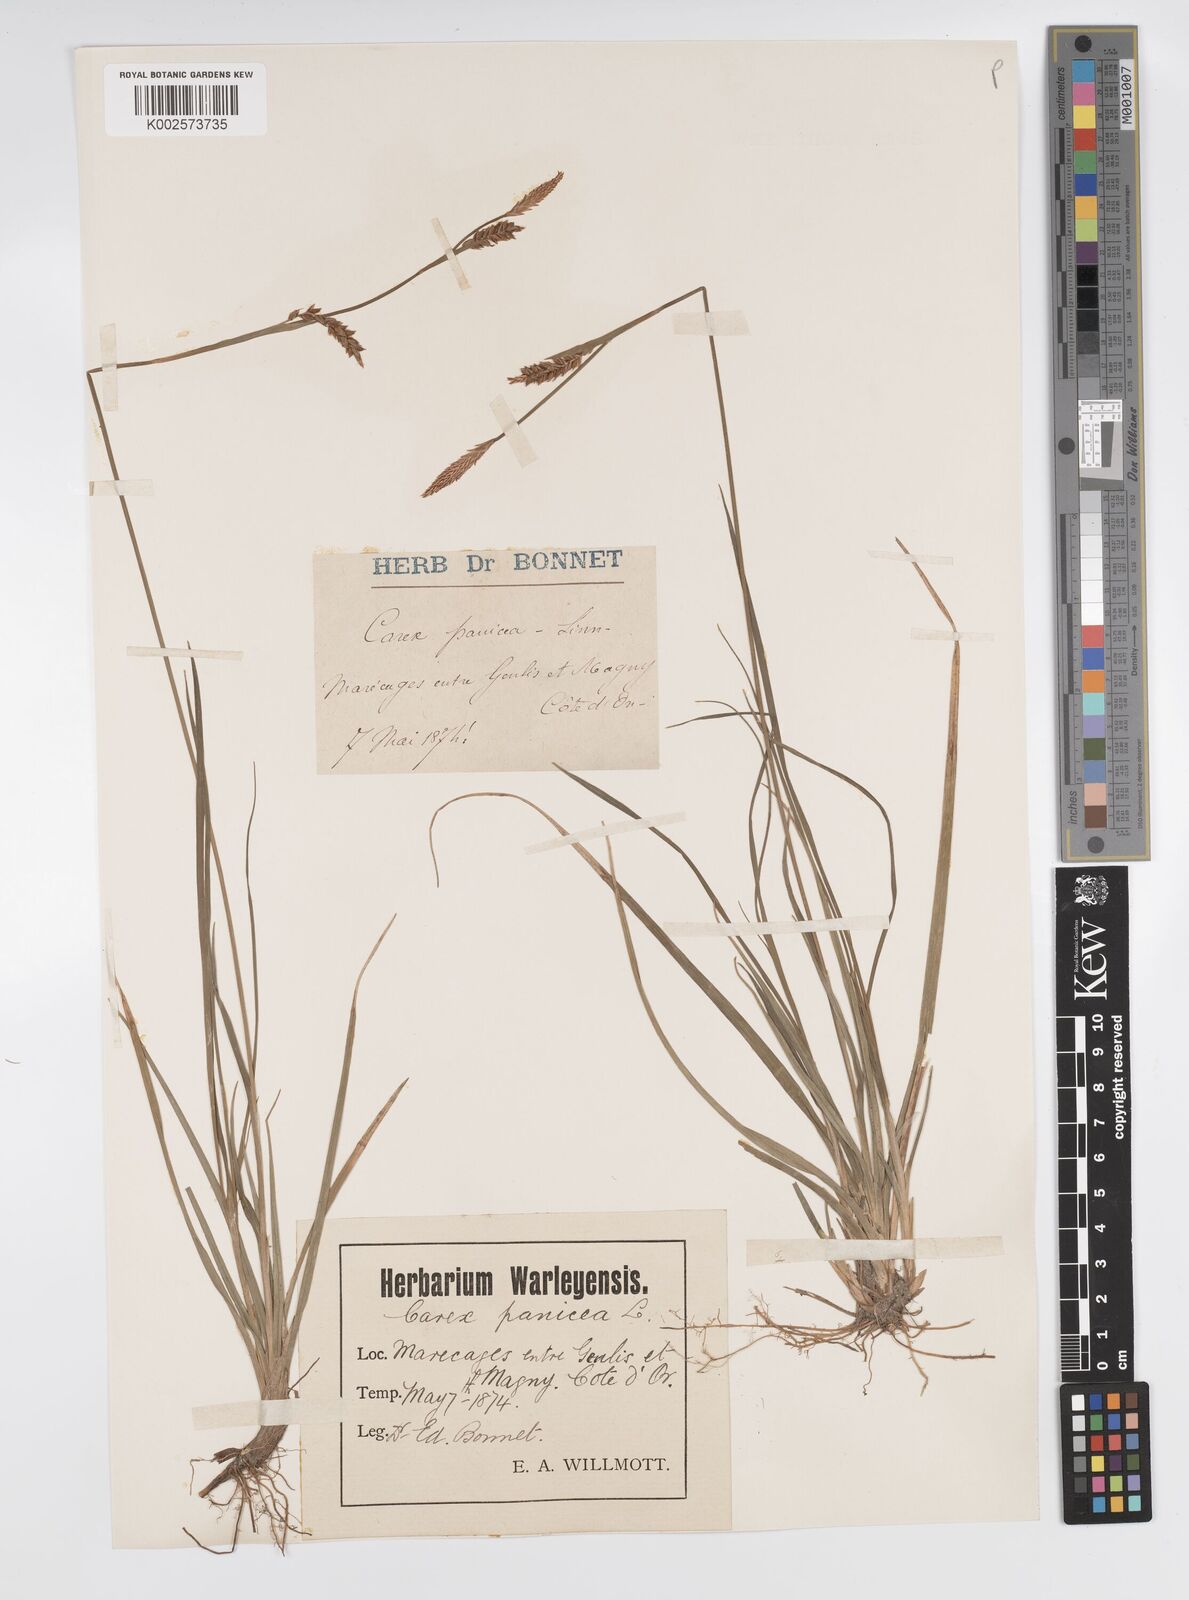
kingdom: Plantae
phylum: Tracheophyta
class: Liliopsida
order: Poales
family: Cyperaceae
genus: Carex
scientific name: Carex panicea
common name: Carnation sedge
